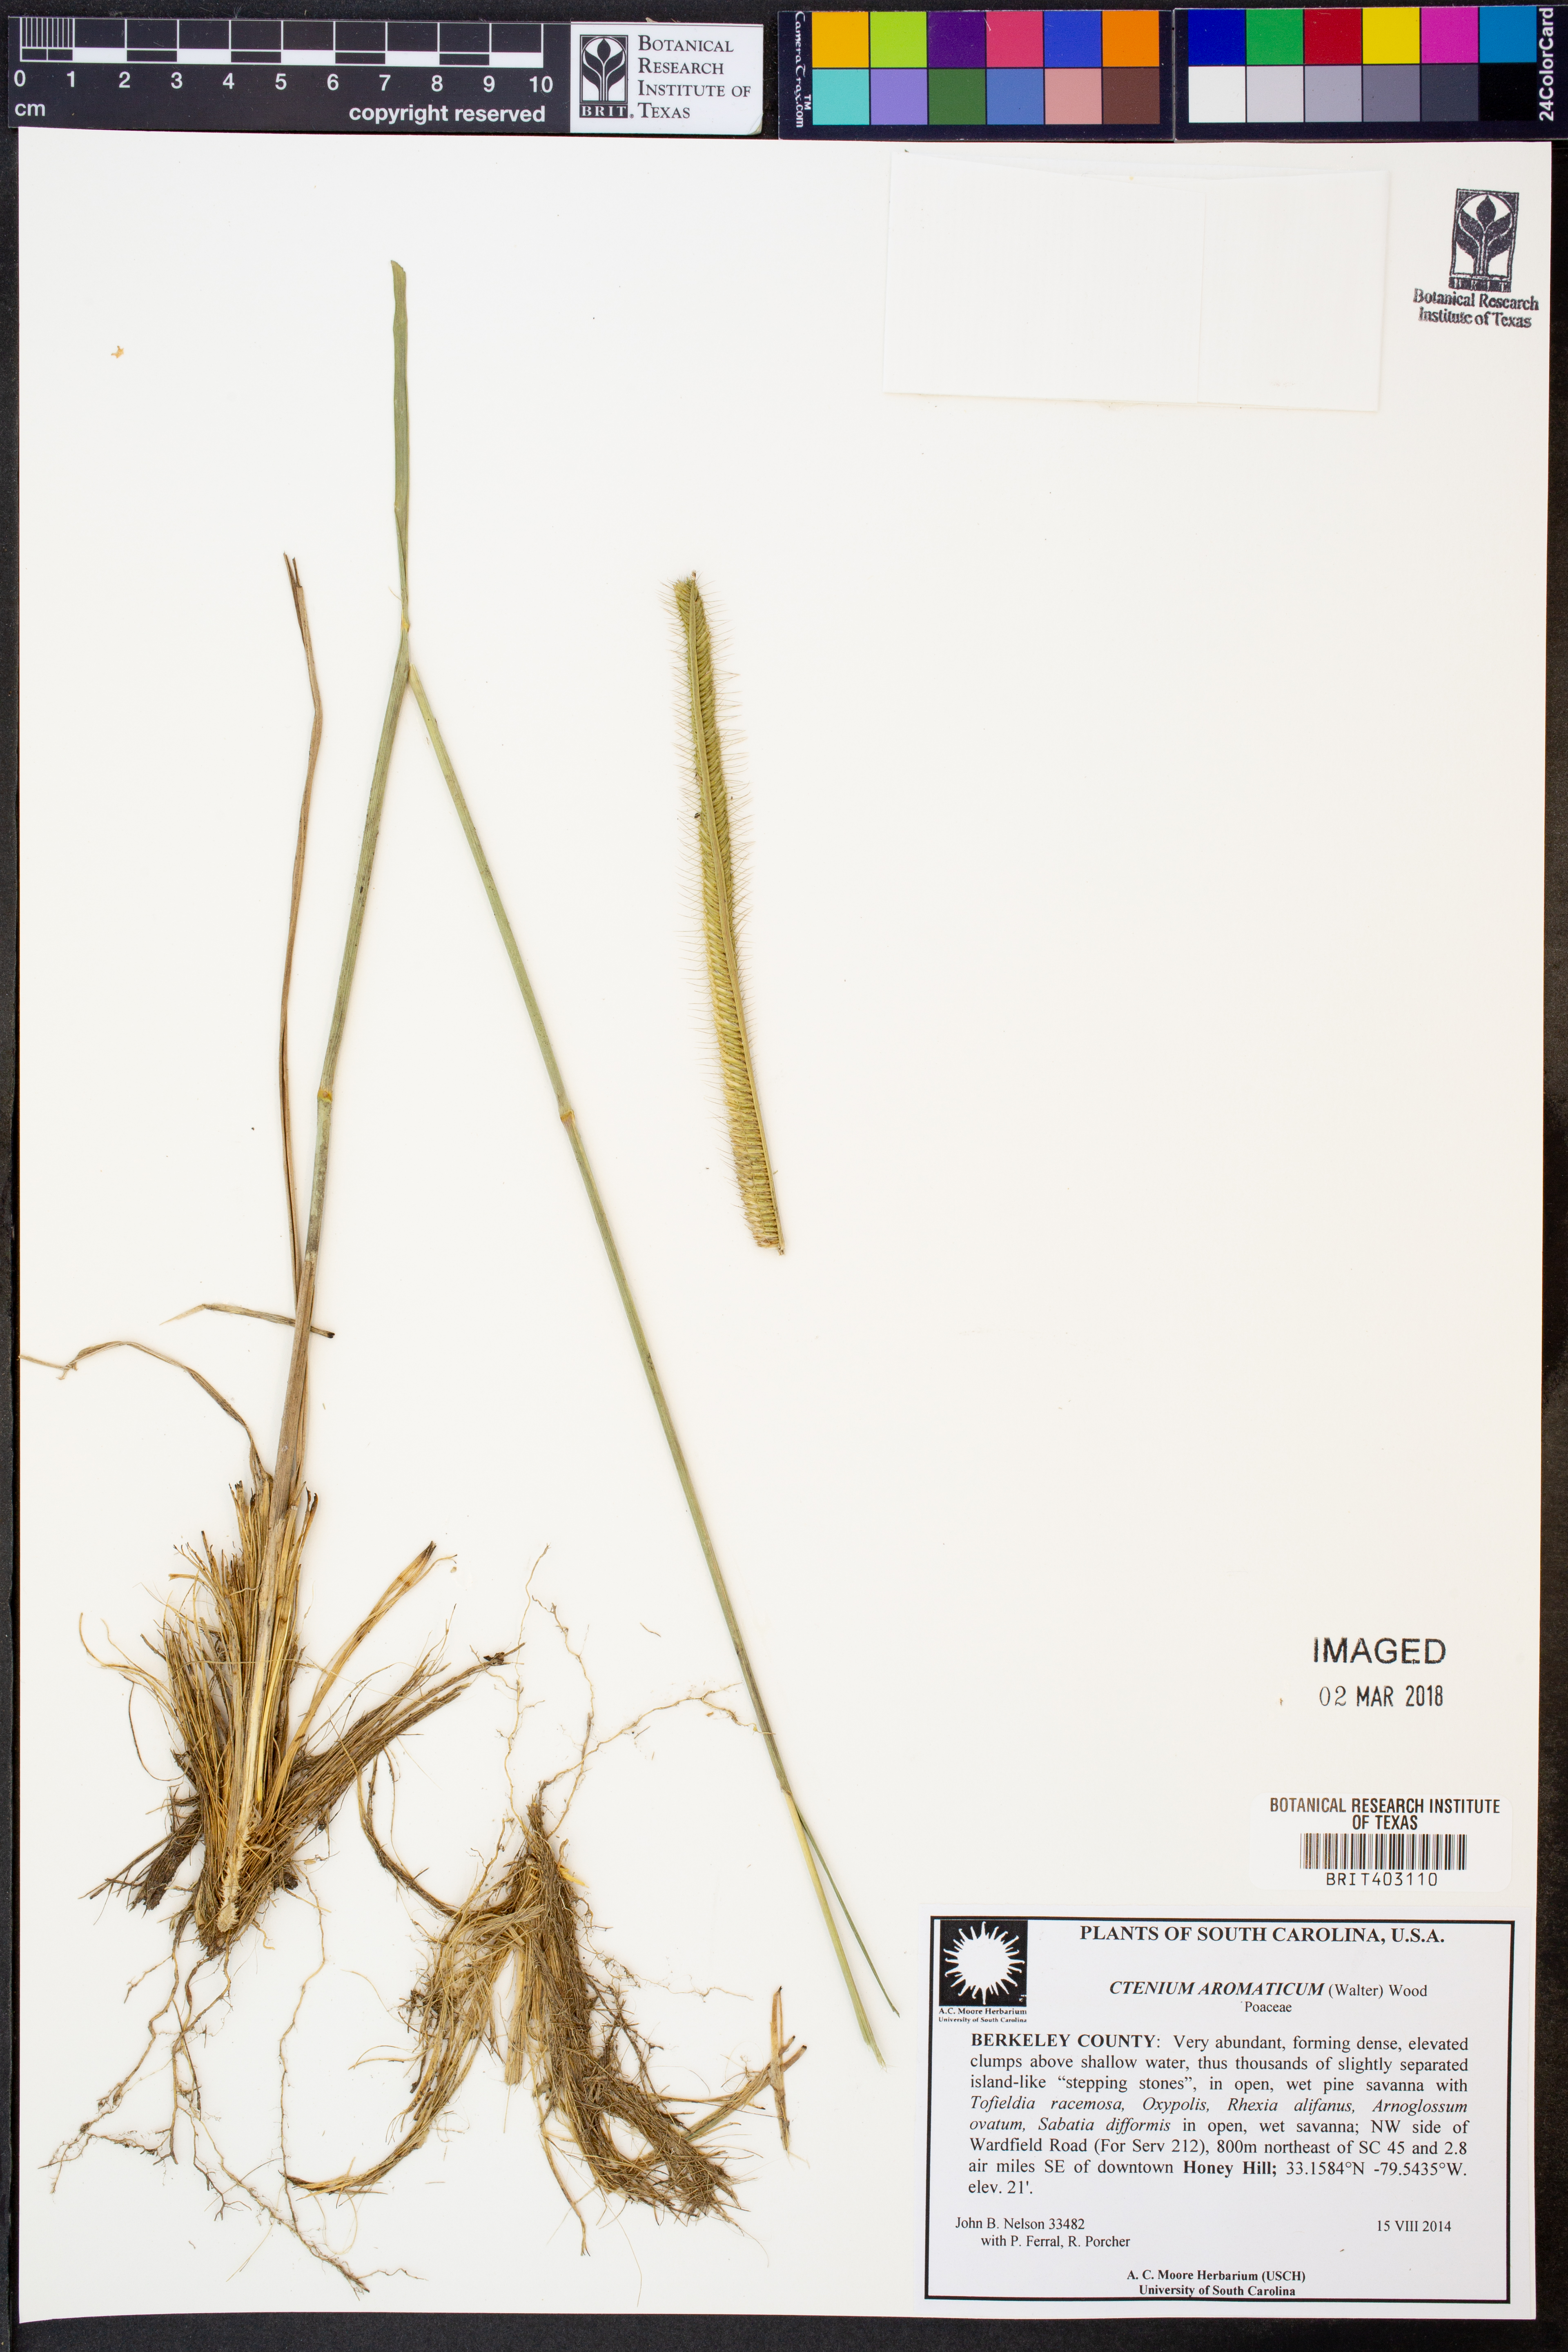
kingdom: Plantae
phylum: Tracheophyta
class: Liliopsida
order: Poales
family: Poaceae
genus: Ctenium
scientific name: Ctenium aromaticum
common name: Toothache grass
